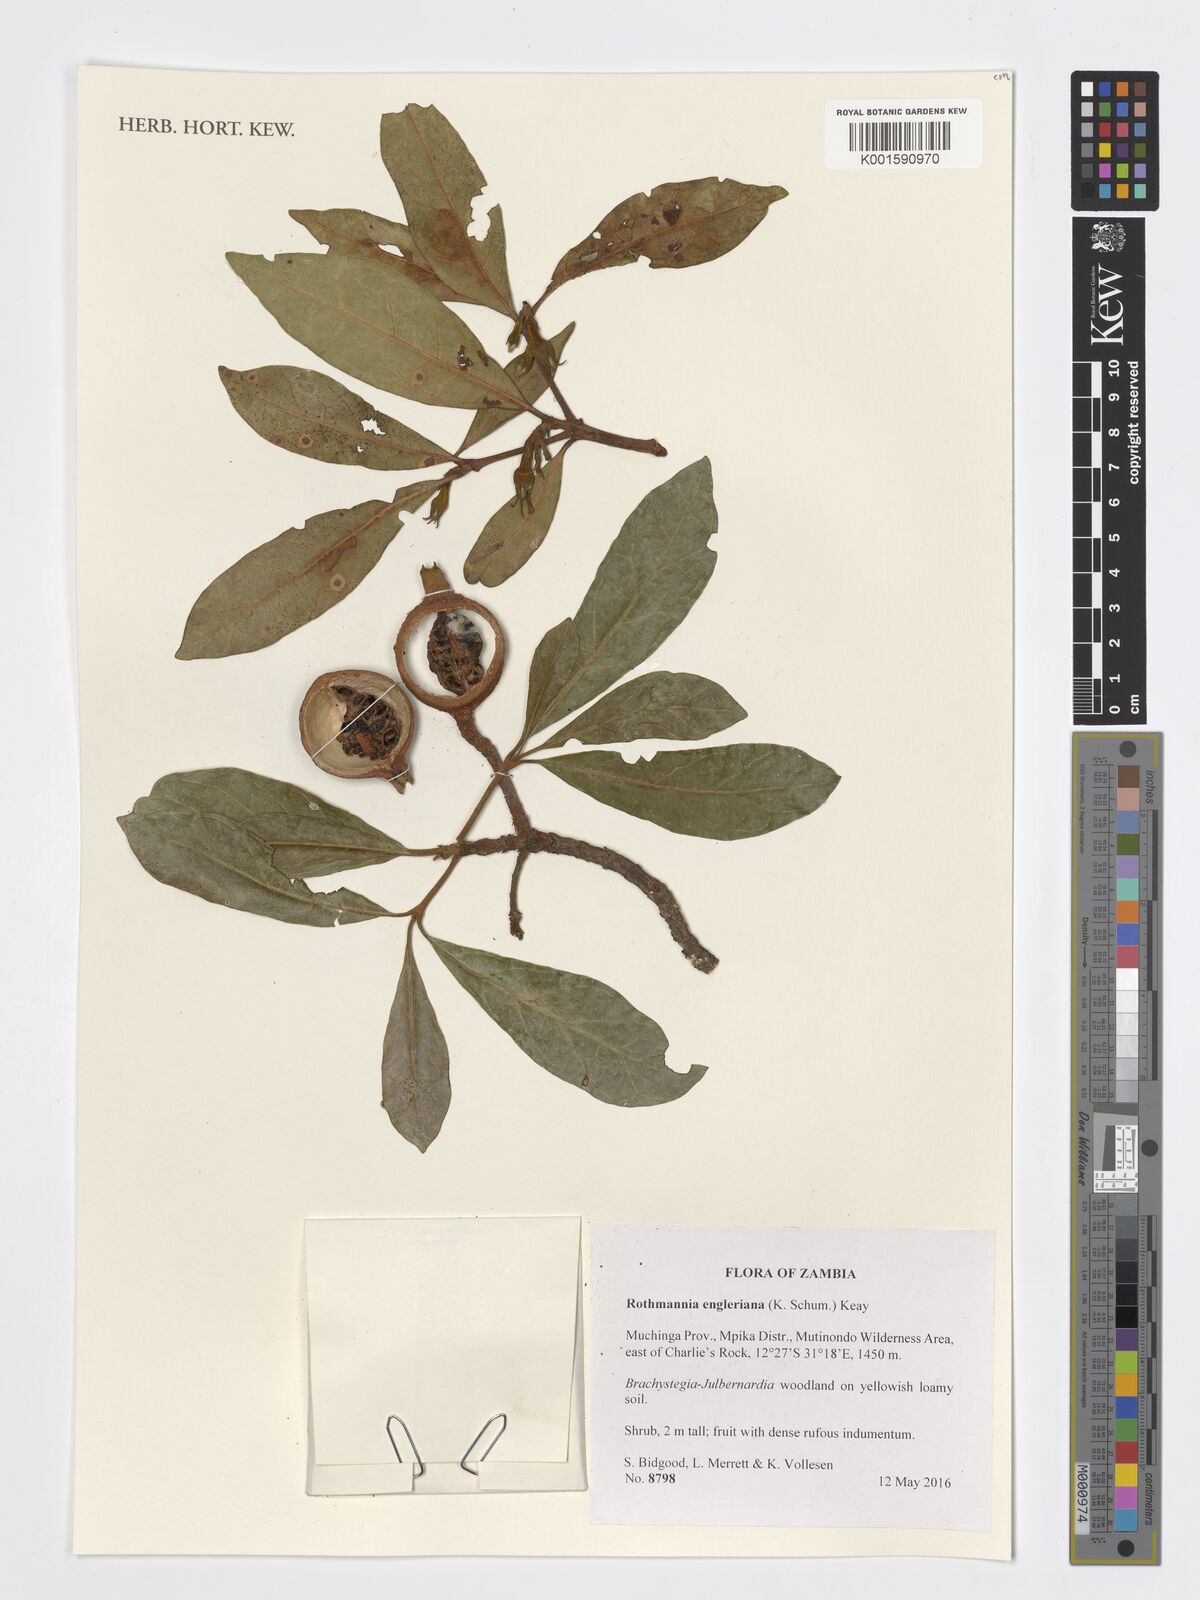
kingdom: Plantae
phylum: Tracheophyta
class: Magnoliopsida
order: Gentianales
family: Rubiaceae
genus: Rothmannia
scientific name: Rothmannia engleriana
